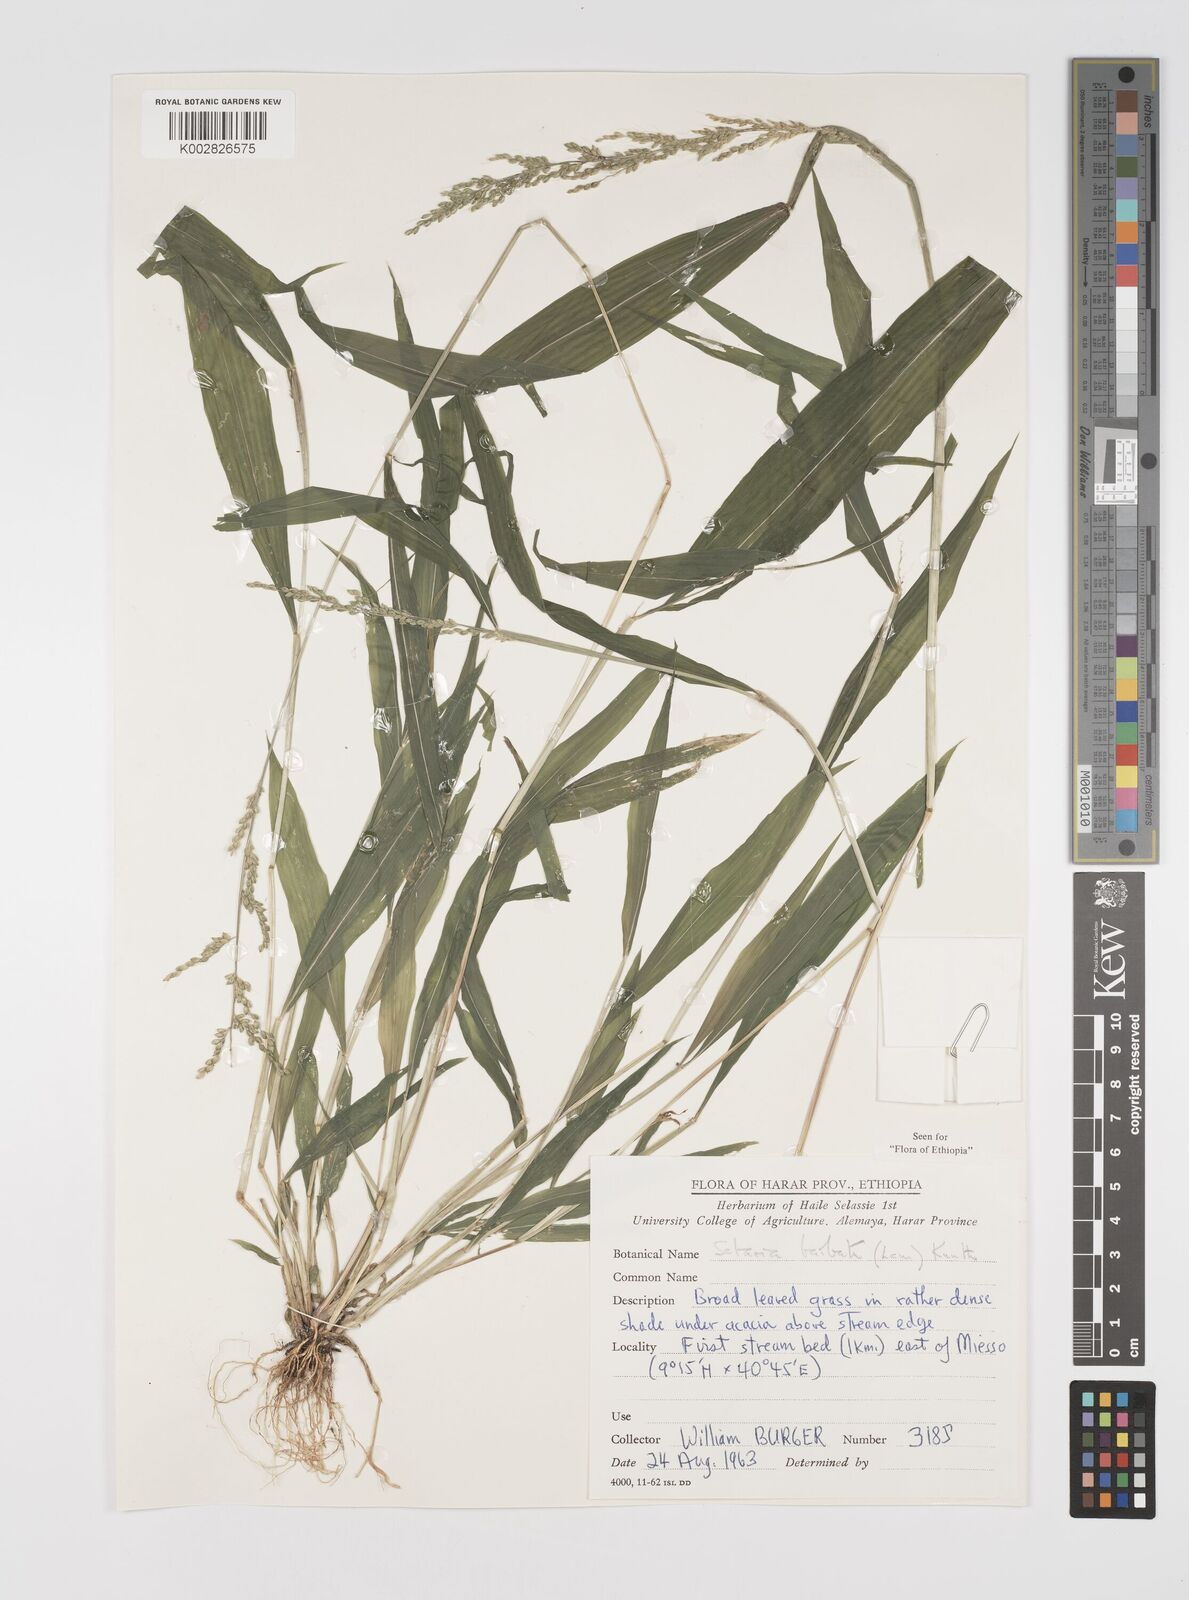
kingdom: Plantae
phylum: Tracheophyta
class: Liliopsida
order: Poales
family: Poaceae
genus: Setaria
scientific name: Setaria barbata
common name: East indian bristlegrass
